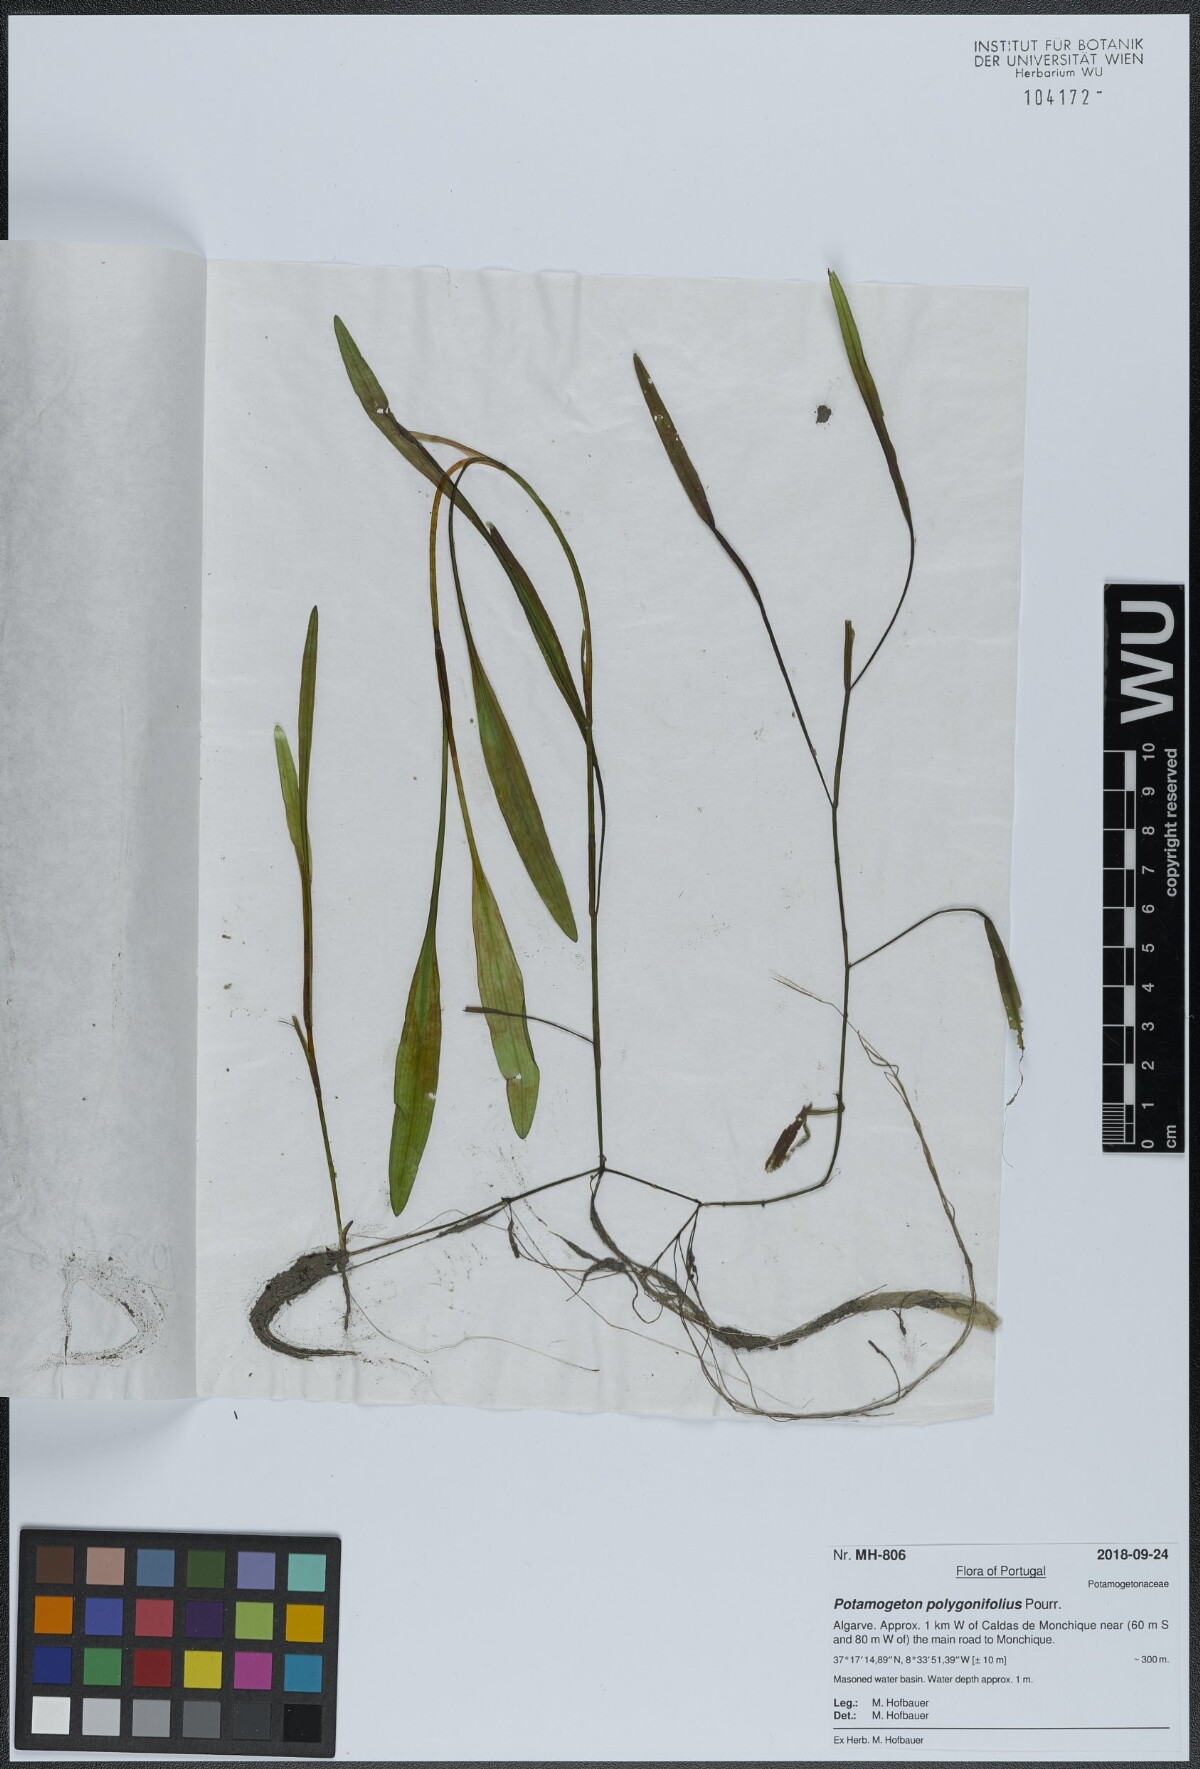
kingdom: Plantae
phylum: Tracheophyta
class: Liliopsida
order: Alismatales
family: Potamogetonaceae
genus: Potamogeton
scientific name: Potamogeton polygonifolius
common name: Bog pondweed
